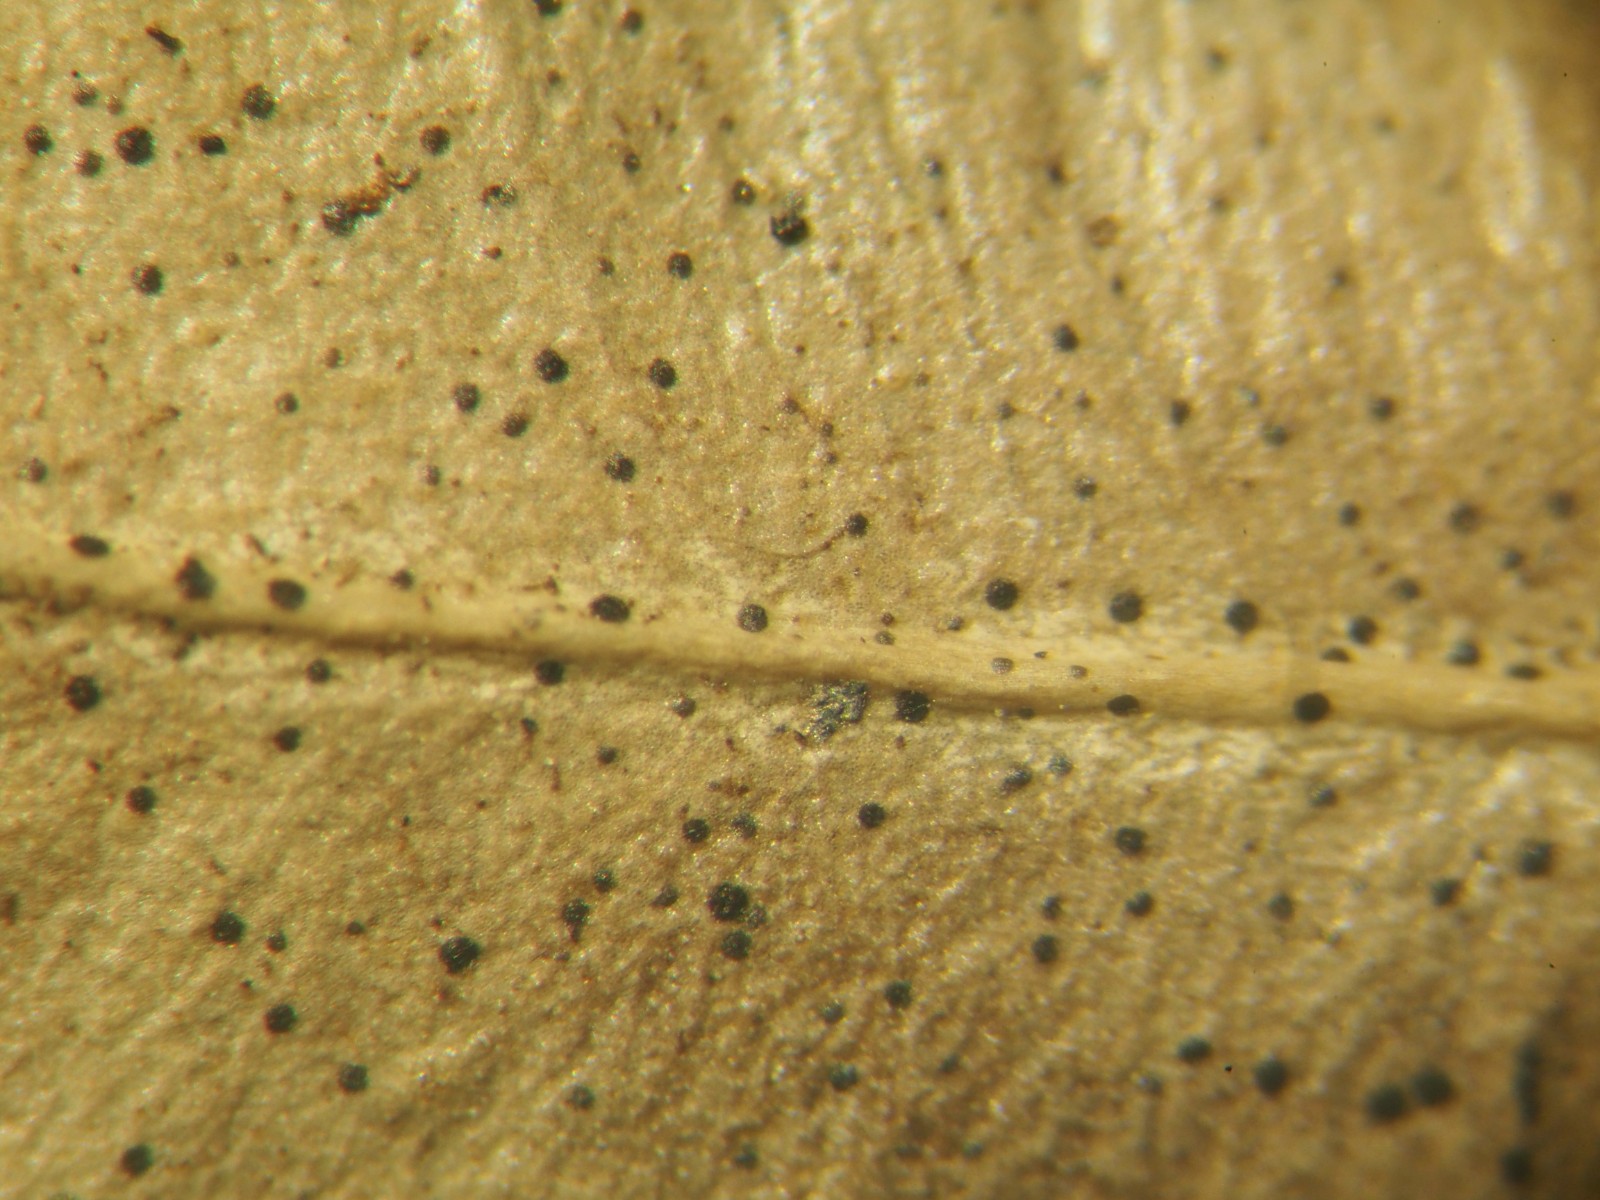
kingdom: Fungi
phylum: Ascomycota
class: Dothideomycetes
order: Microthyriales
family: Microthyriaceae
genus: Microthyrium
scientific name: Microthyrium macrosporum
